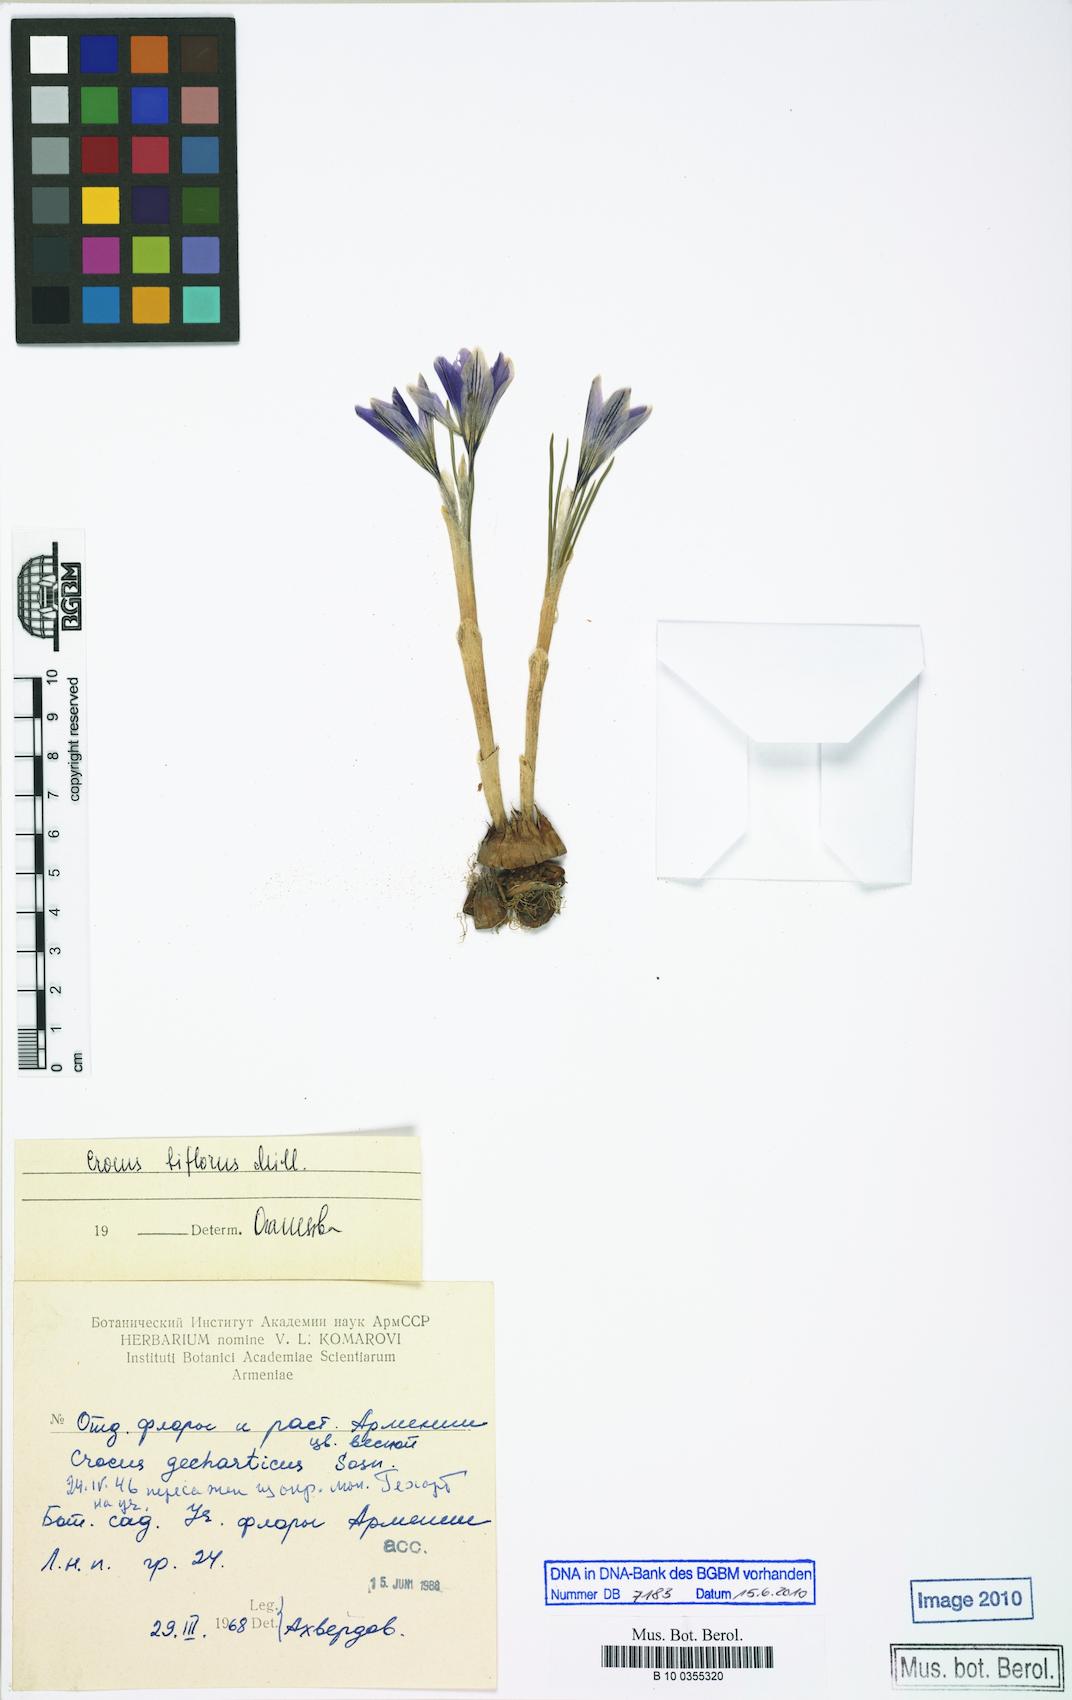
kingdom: Plantae
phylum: Tracheophyta
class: Liliopsida
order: Asparagales
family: Iridaceae
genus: Crocus
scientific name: Crocus biflorus
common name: Silvery crocus
